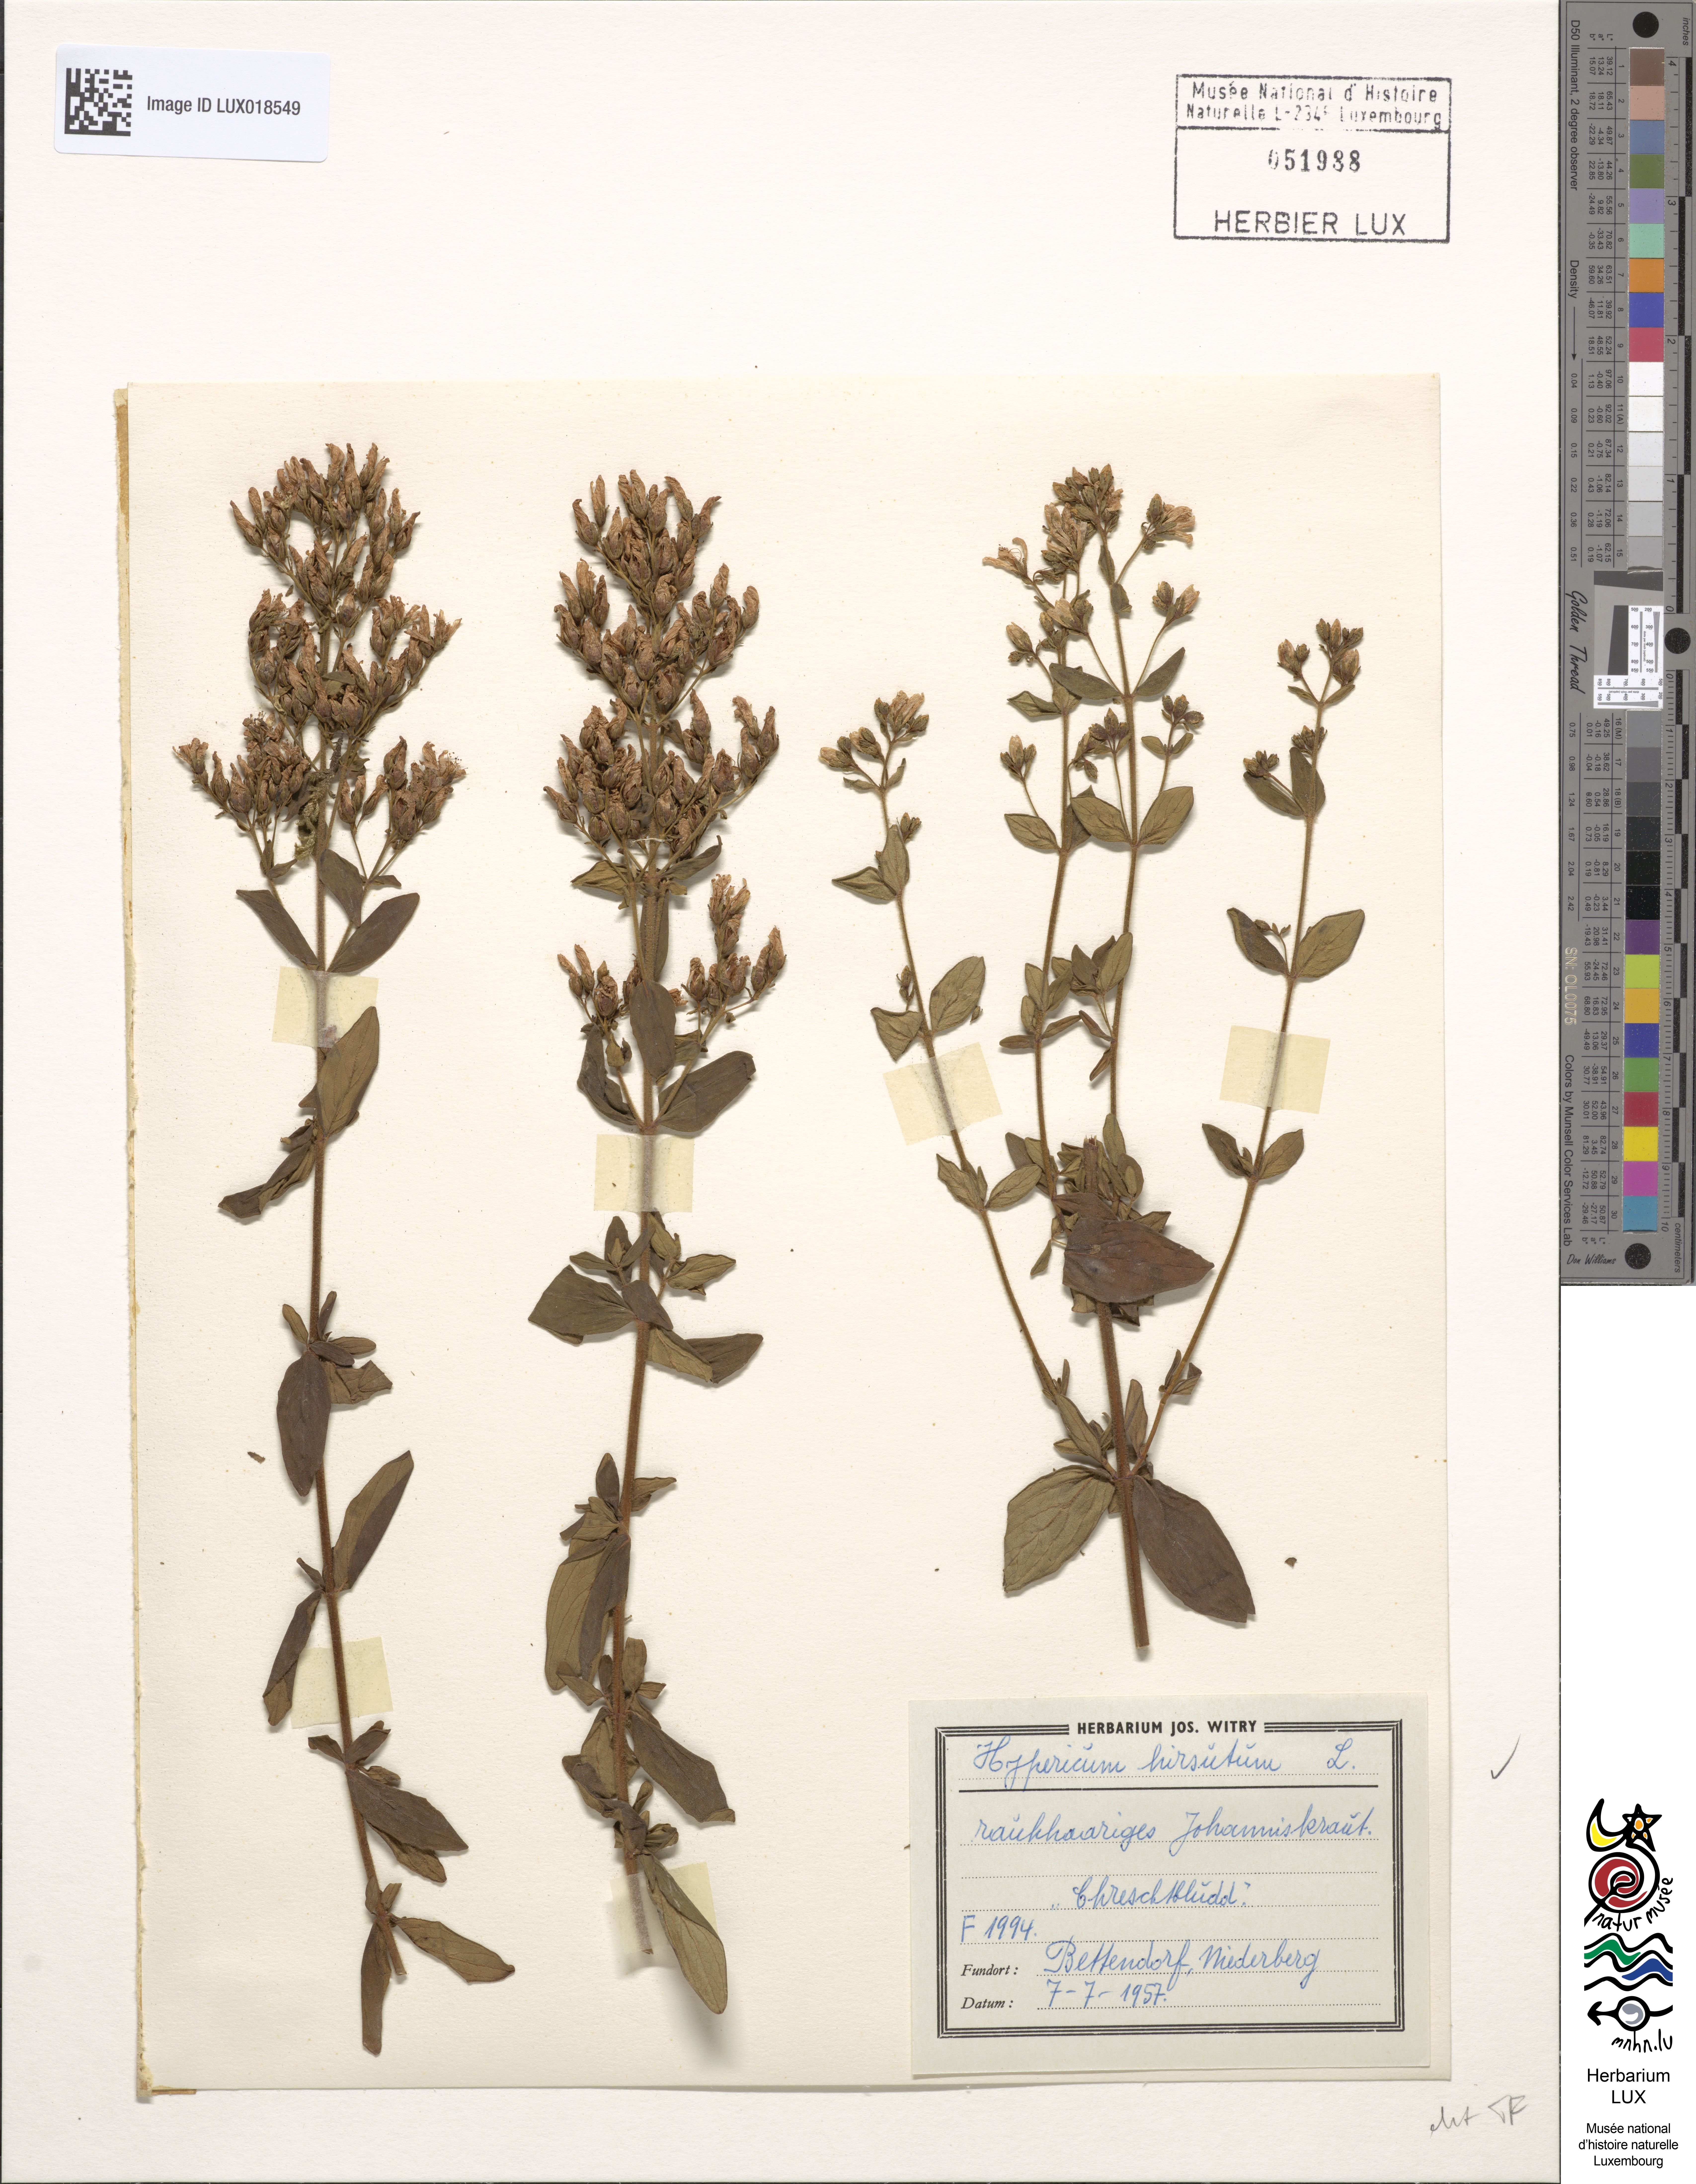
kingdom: Plantae
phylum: Tracheophyta
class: Magnoliopsida
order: Malpighiales
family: Hypericaceae
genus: Hypericum
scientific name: Hypericum hirsutum
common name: Hairy st. john's-wort
